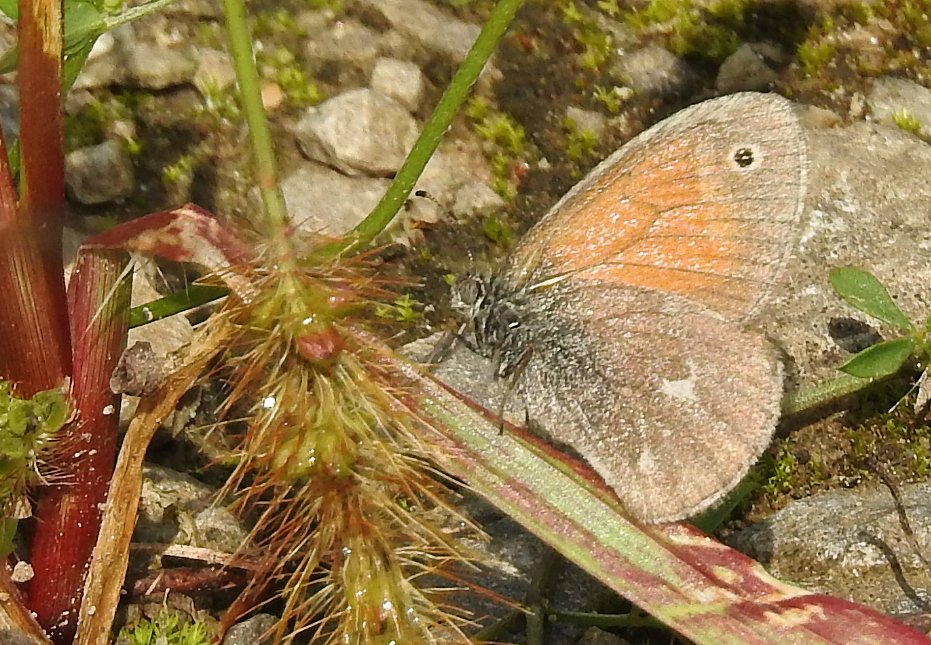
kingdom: Animalia
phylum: Arthropoda
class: Insecta
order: Lepidoptera
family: Nymphalidae
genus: Coenonympha
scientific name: Coenonympha tullia
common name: Large Heath
